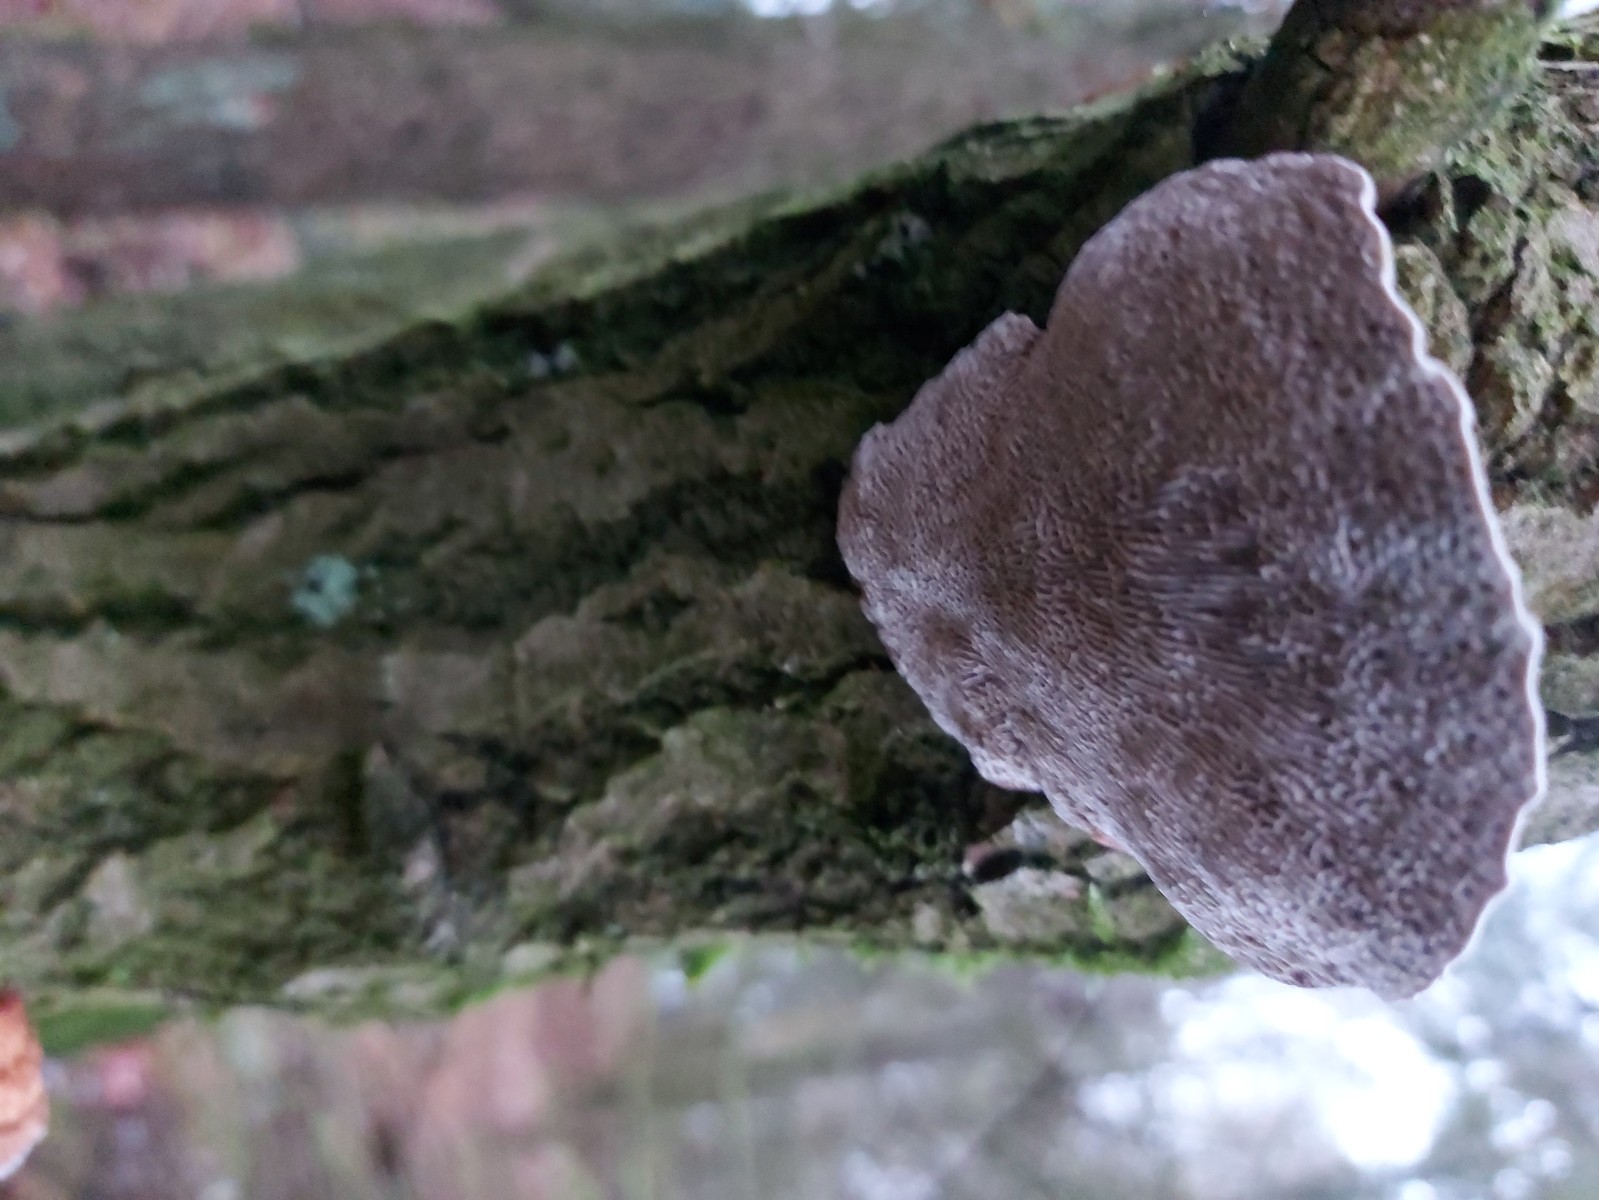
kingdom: Fungi
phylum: Basidiomycota
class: Agaricomycetes
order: Polyporales
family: Polyporaceae
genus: Daedaleopsis
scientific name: Daedaleopsis confragosa
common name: rødmende læderporesvamp
